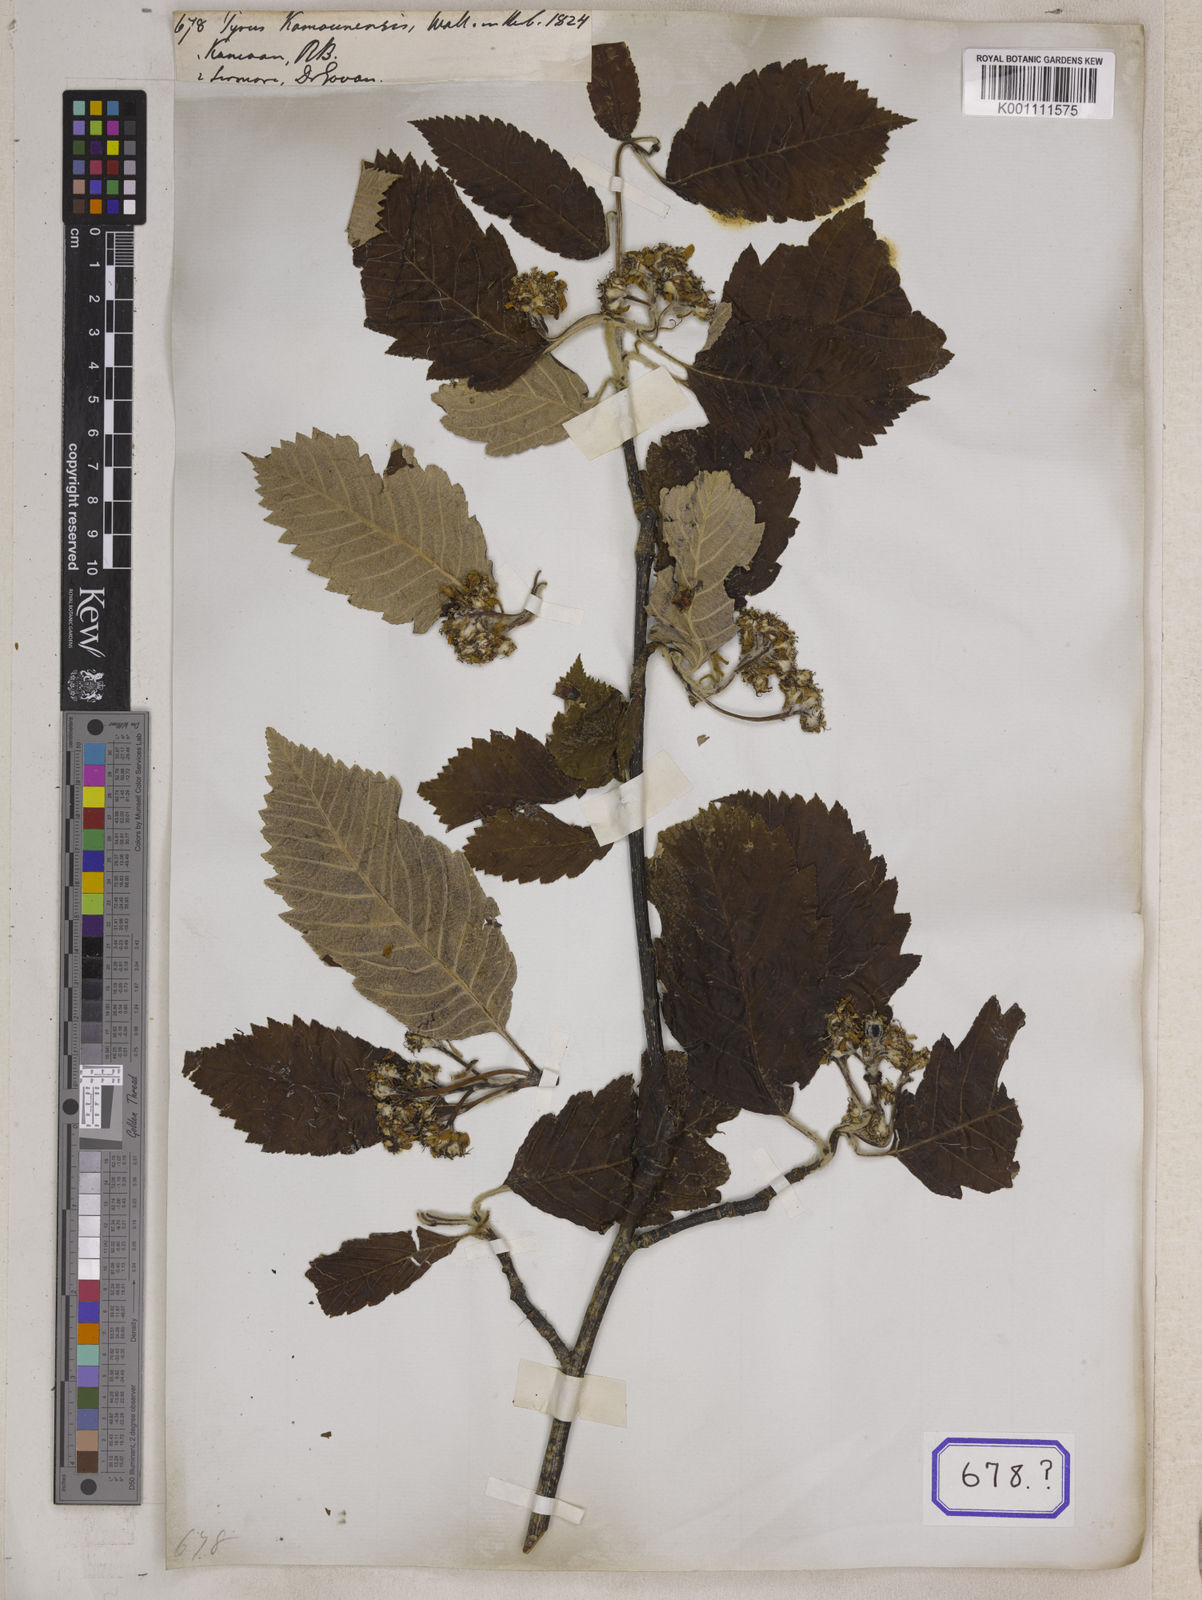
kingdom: Plantae
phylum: Tracheophyta
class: Magnoliopsida
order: Rosales
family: Rosaceae
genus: Pyrus
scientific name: Pyrus kamounensis
